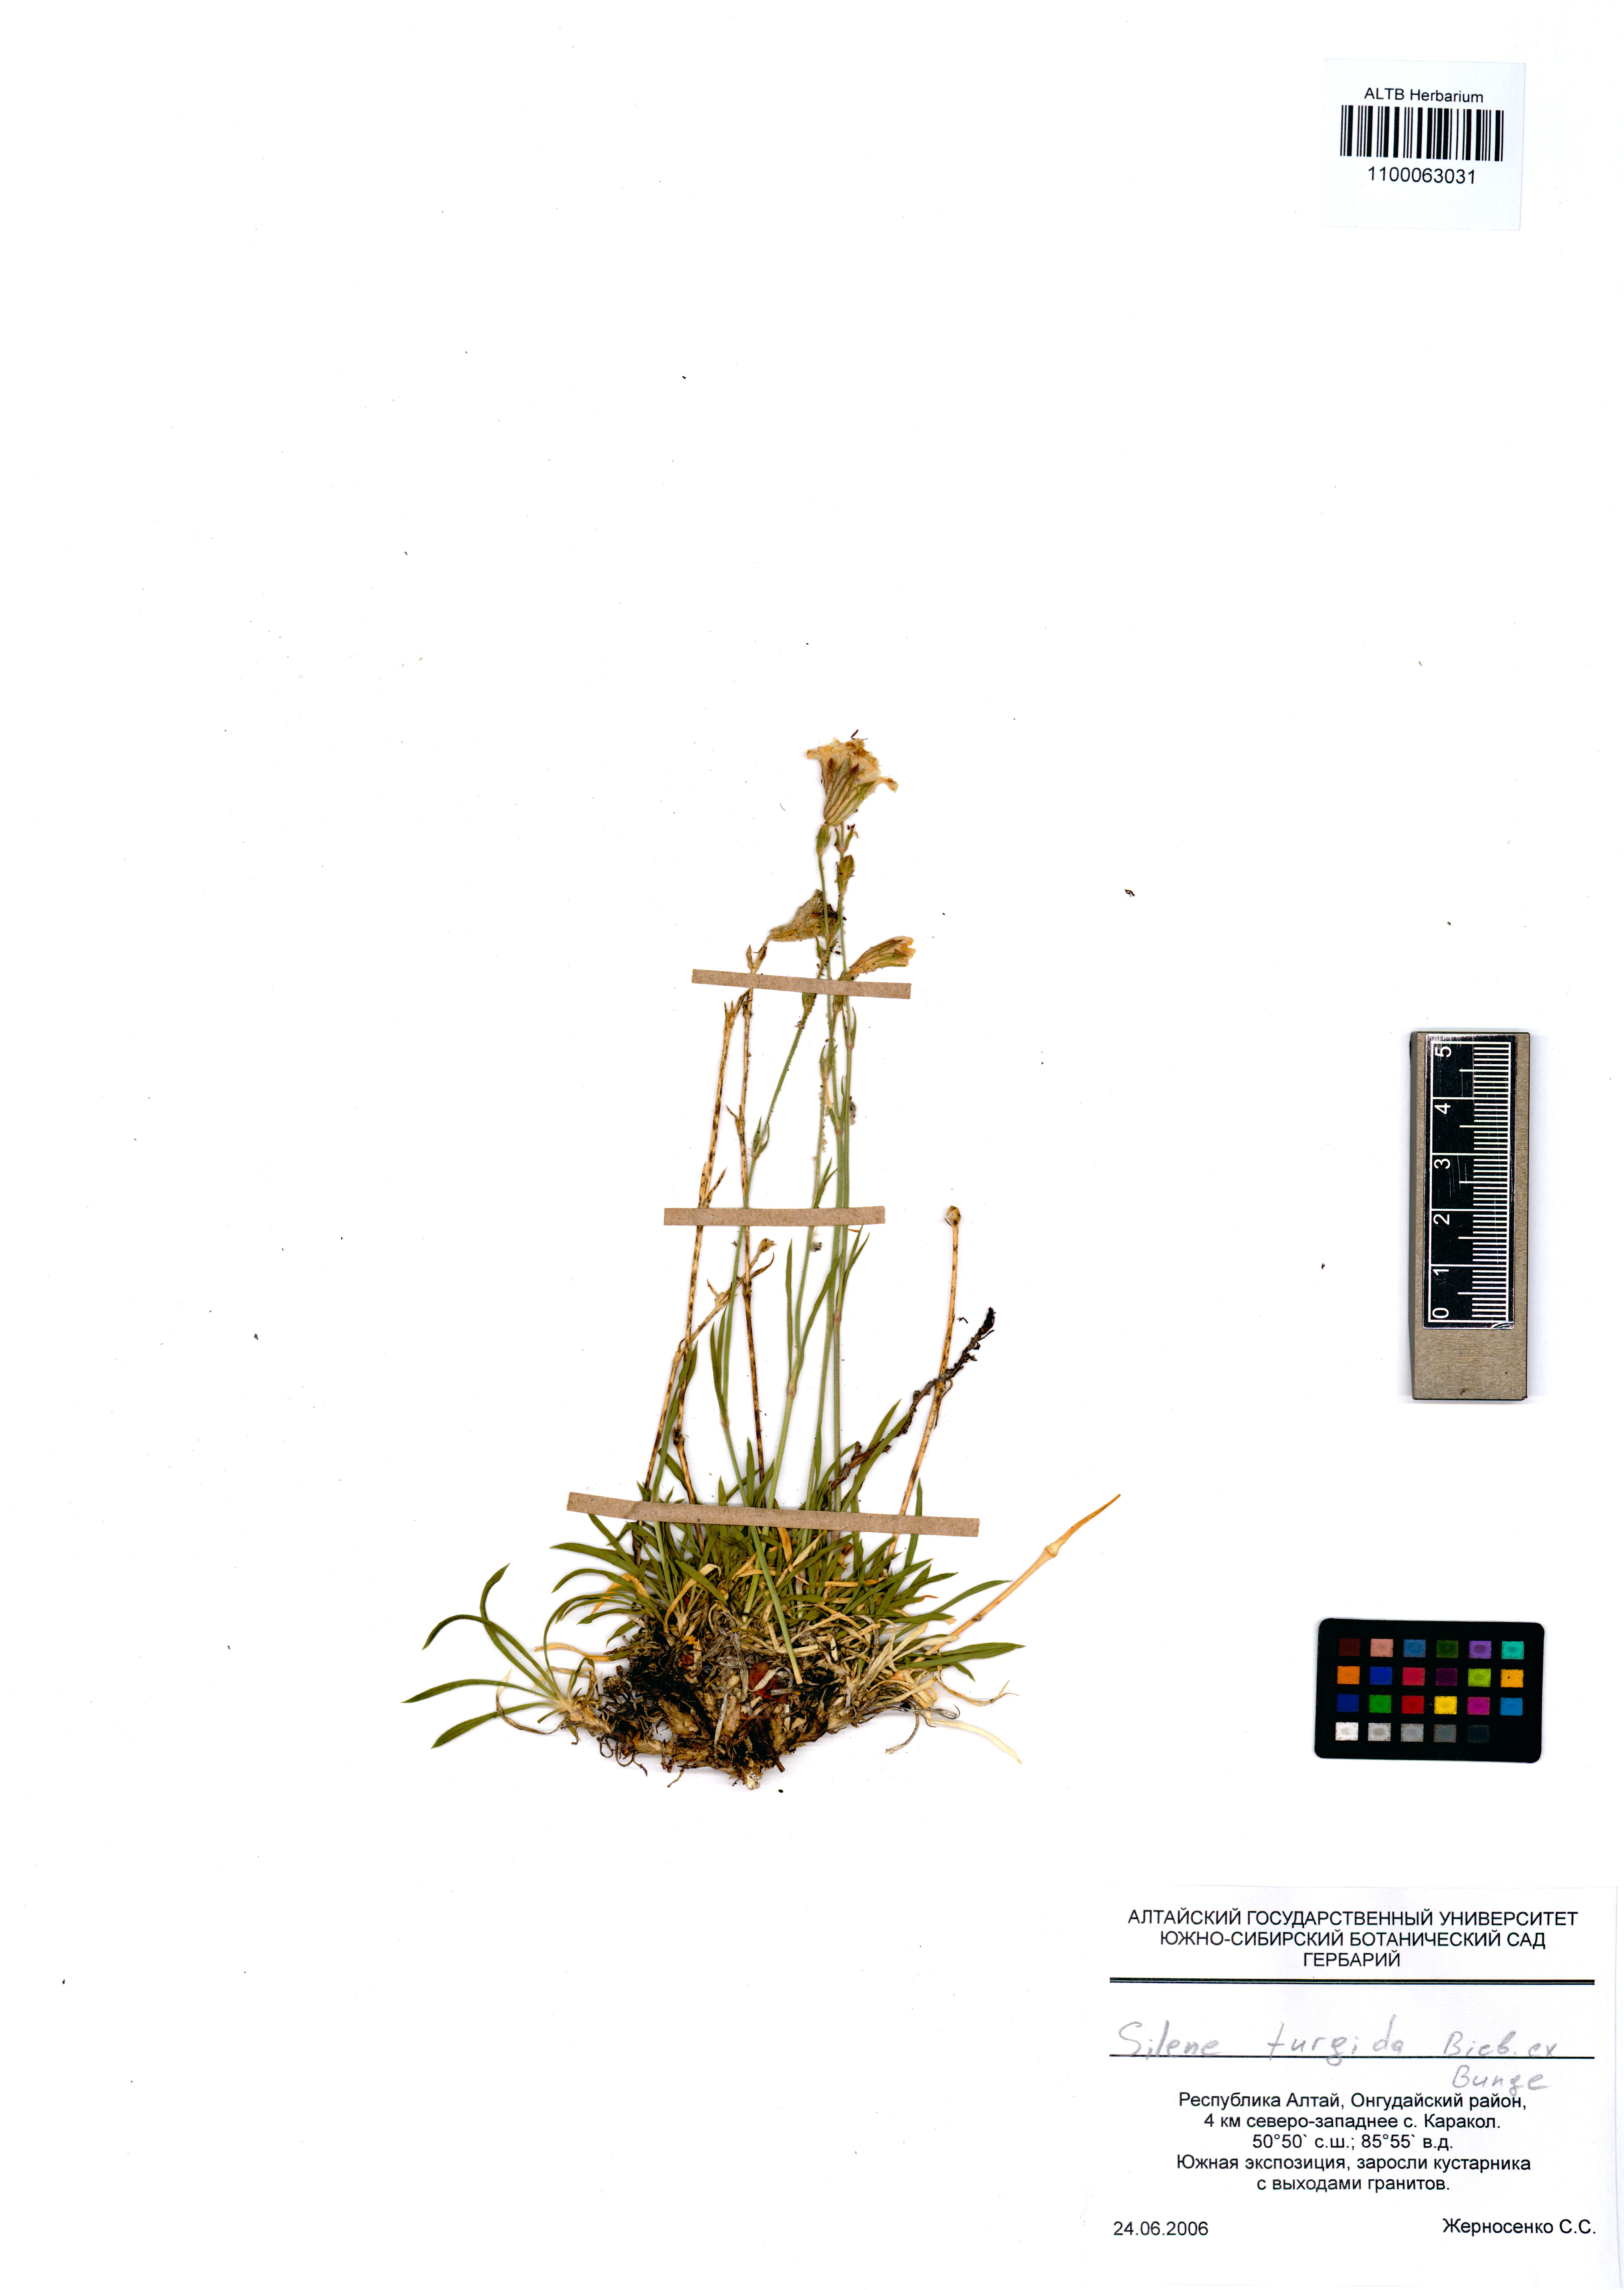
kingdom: Plantae
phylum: Tracheophyta
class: Magnoliopsida
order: Caryophyllales
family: Caryophyllaceae
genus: Silene
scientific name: Silene turgida
